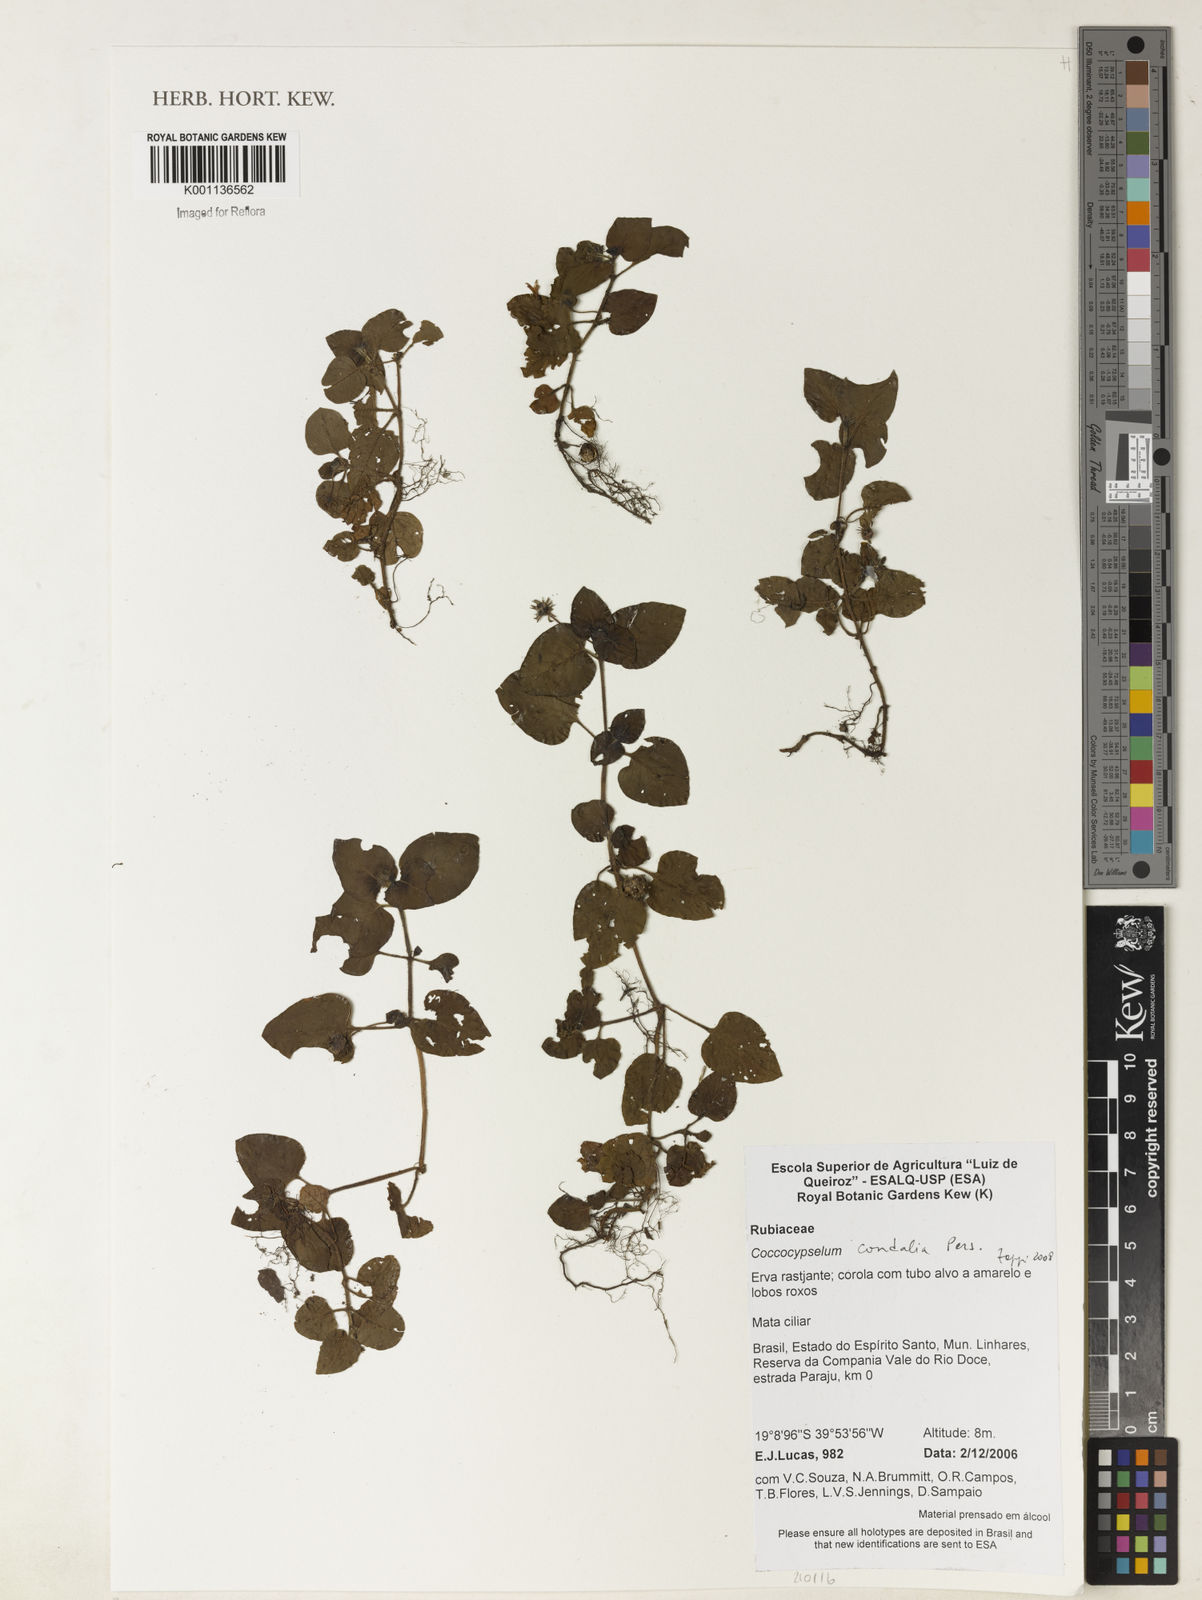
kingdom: Plantae
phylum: Tracheophyta
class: Magnoliopsida
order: Gentianales
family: Rubiaceae
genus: Coccocypselum
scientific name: Coccocypselum condalia
